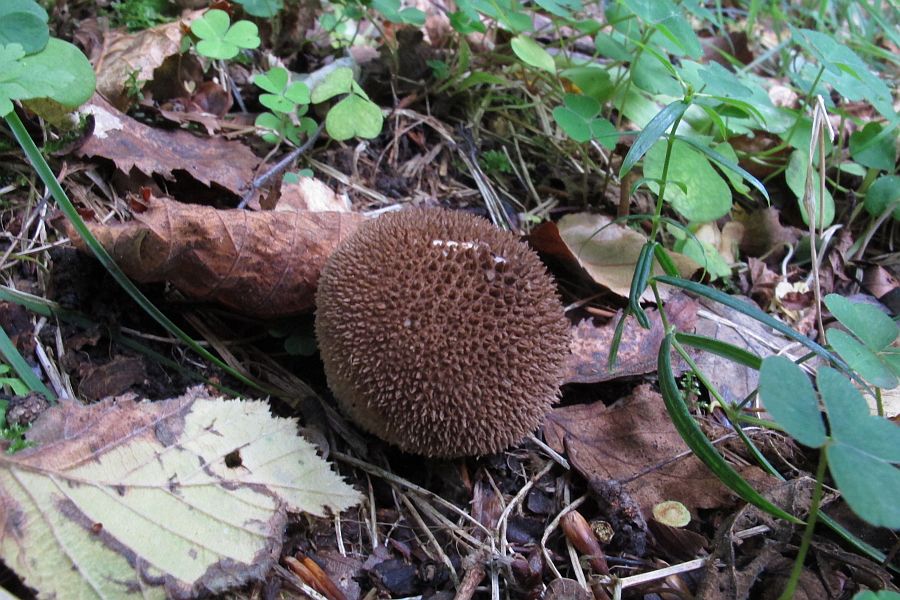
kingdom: Fungi
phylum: Basidiomycota
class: Agaricomycetes
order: Agaricales
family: Lycoperdaceae
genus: Lycoperdon
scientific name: Lycoperdon nigrescens
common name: sortagtig støvbold
